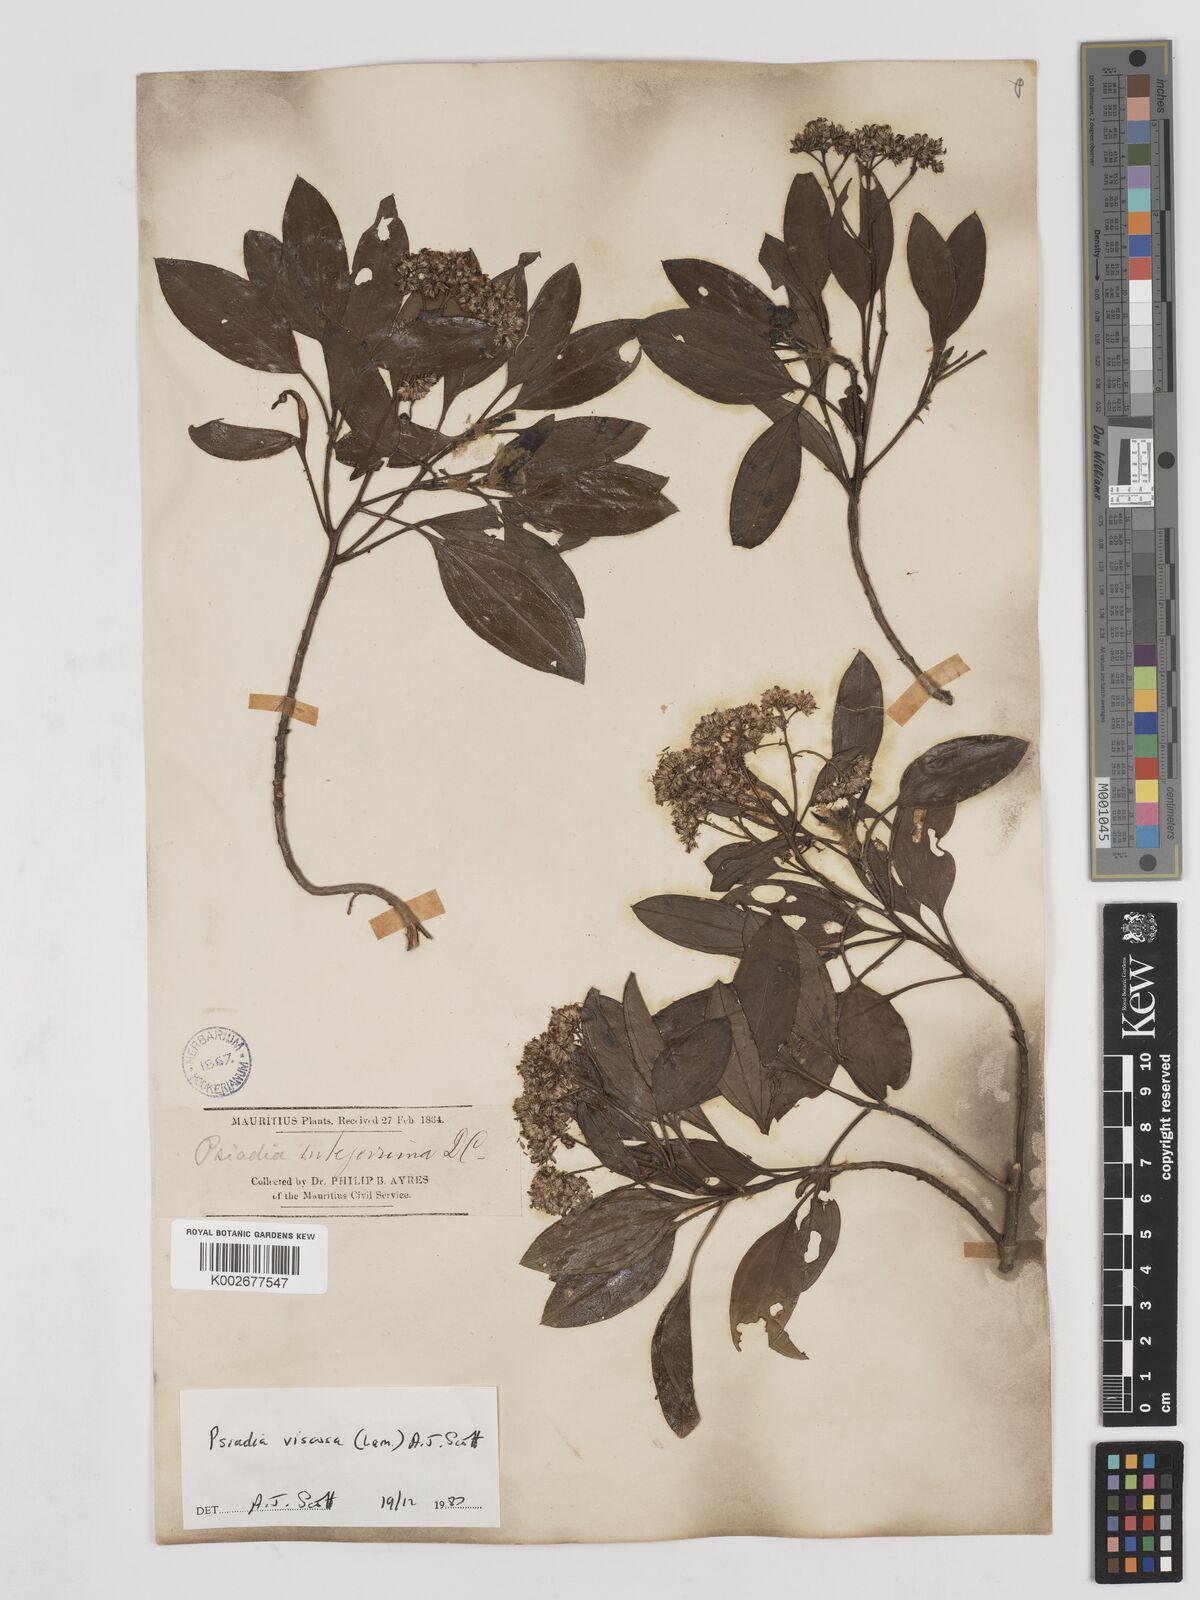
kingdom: Plantae
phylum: Tracheophyta
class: Magnoliopsida
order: Asterales
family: Asteraceae
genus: Psiadia
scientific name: Psiadia viscosa
